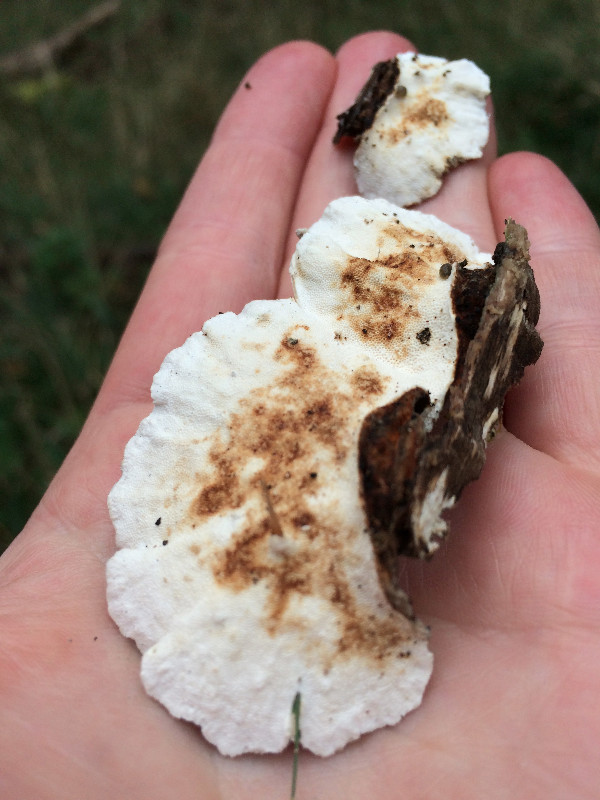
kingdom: Fungi
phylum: Basidiomycota
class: Agaricomycetes
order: Polyporales
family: Polyporaceae
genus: Trametes
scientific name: Trametes versicolor
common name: broget læderporesvamp
